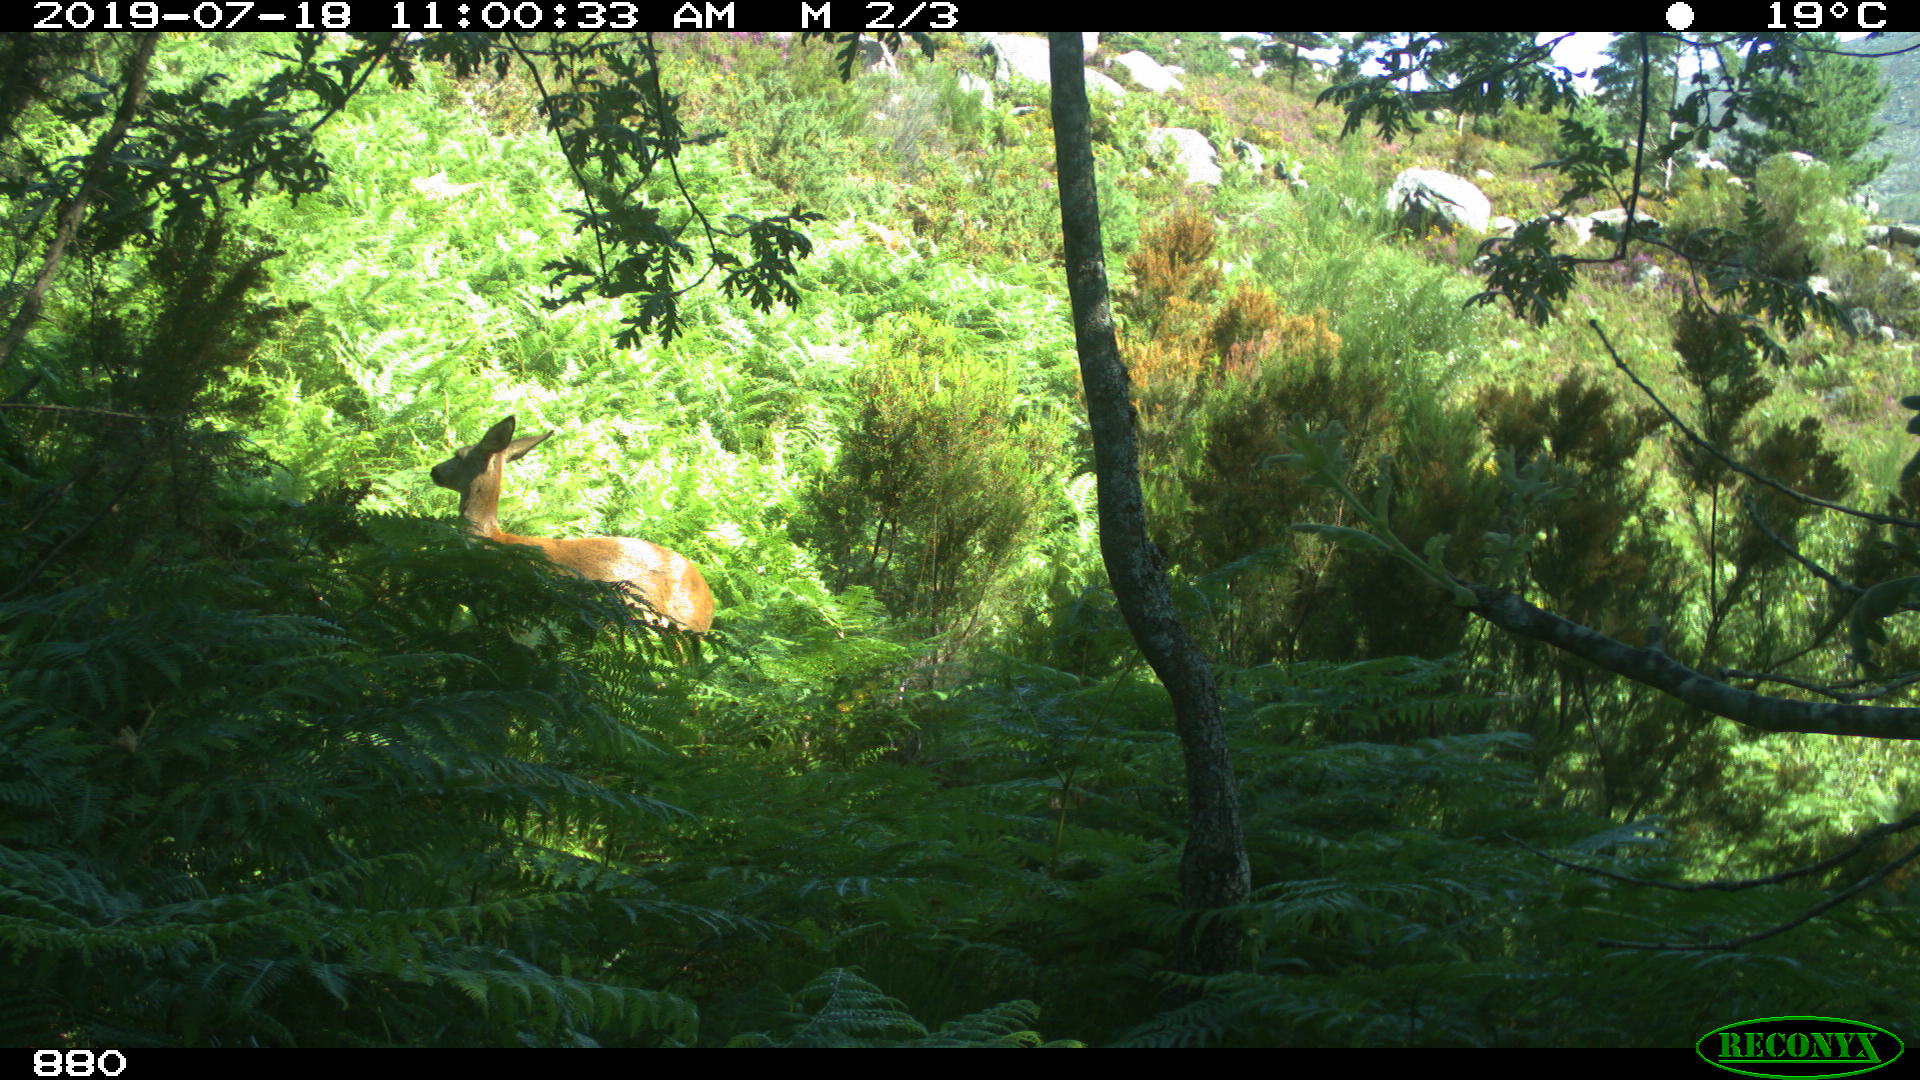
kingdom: Animalia
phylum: Chordata
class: Mammalia
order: Artiodactyla
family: Cervidae
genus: Capreolus
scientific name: Capreolus capreolus
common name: Western roe deer
